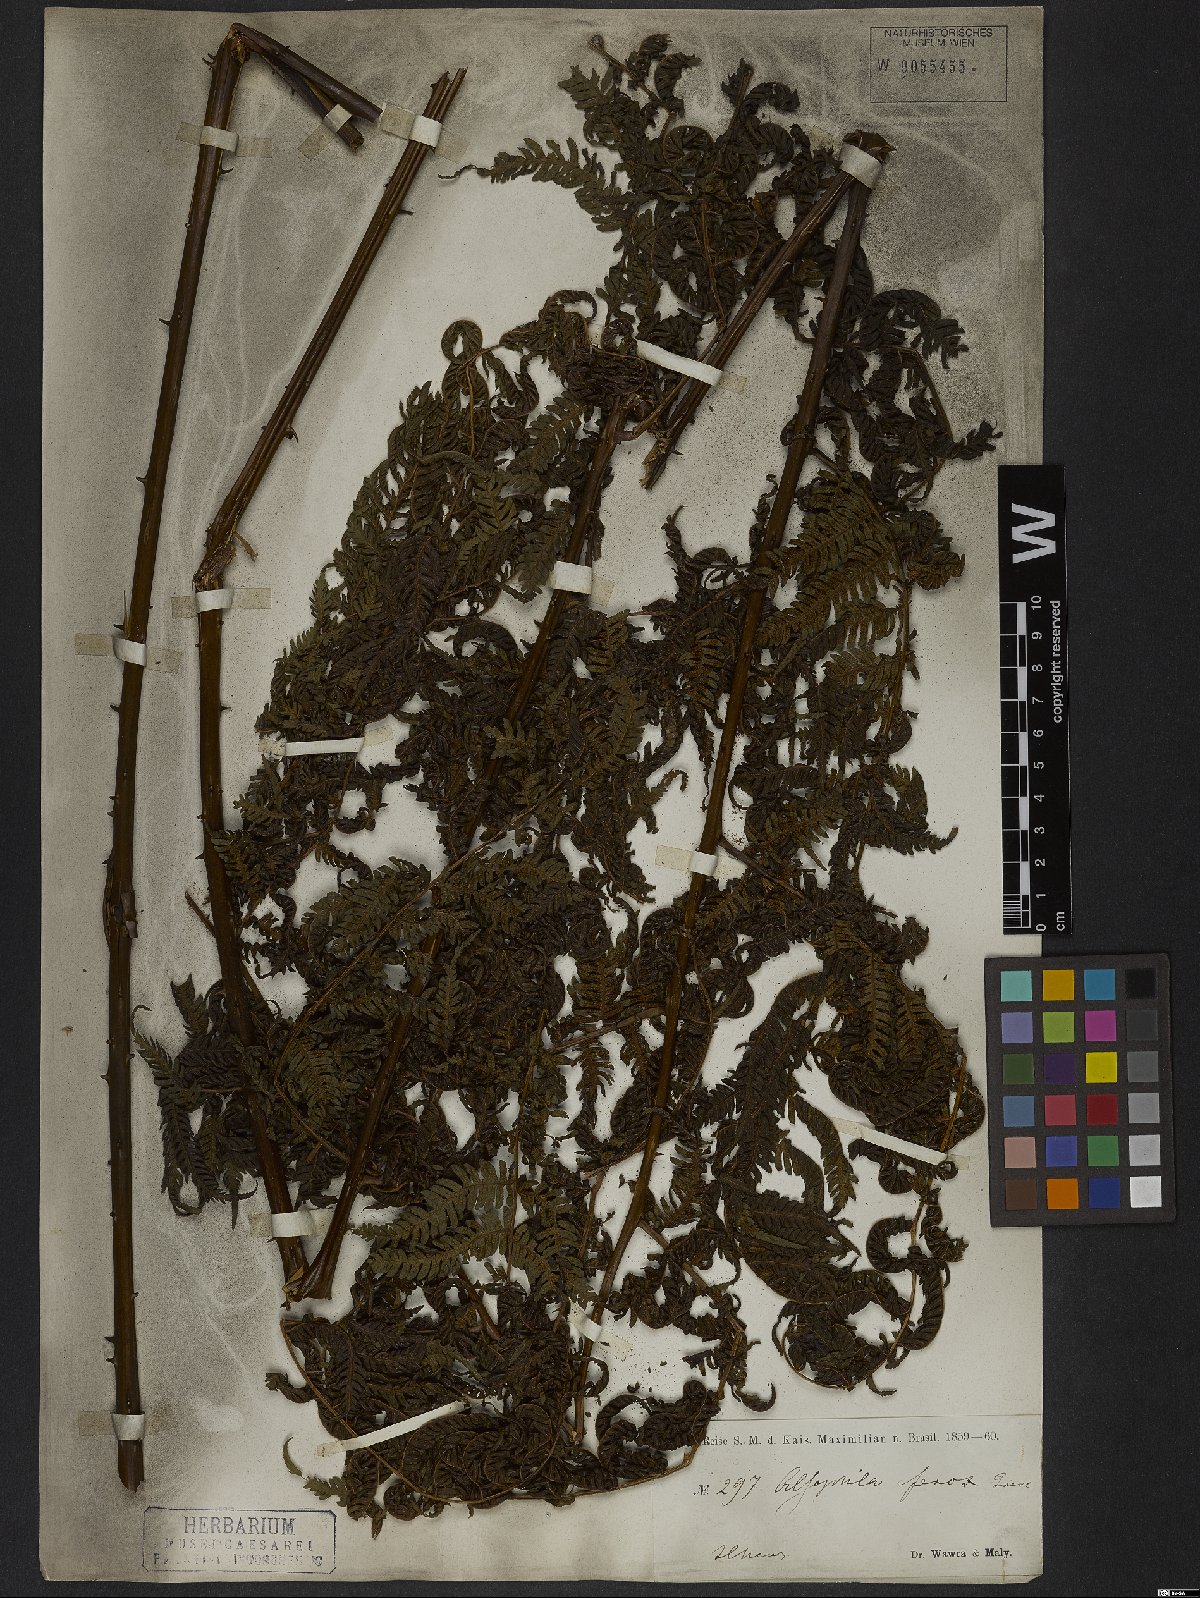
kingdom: Plantae
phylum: Tracheophyta
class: Polypodiopsida
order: Cyatheales
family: Cyatheaceae
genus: Cyathea
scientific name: Cyathea microdonta
